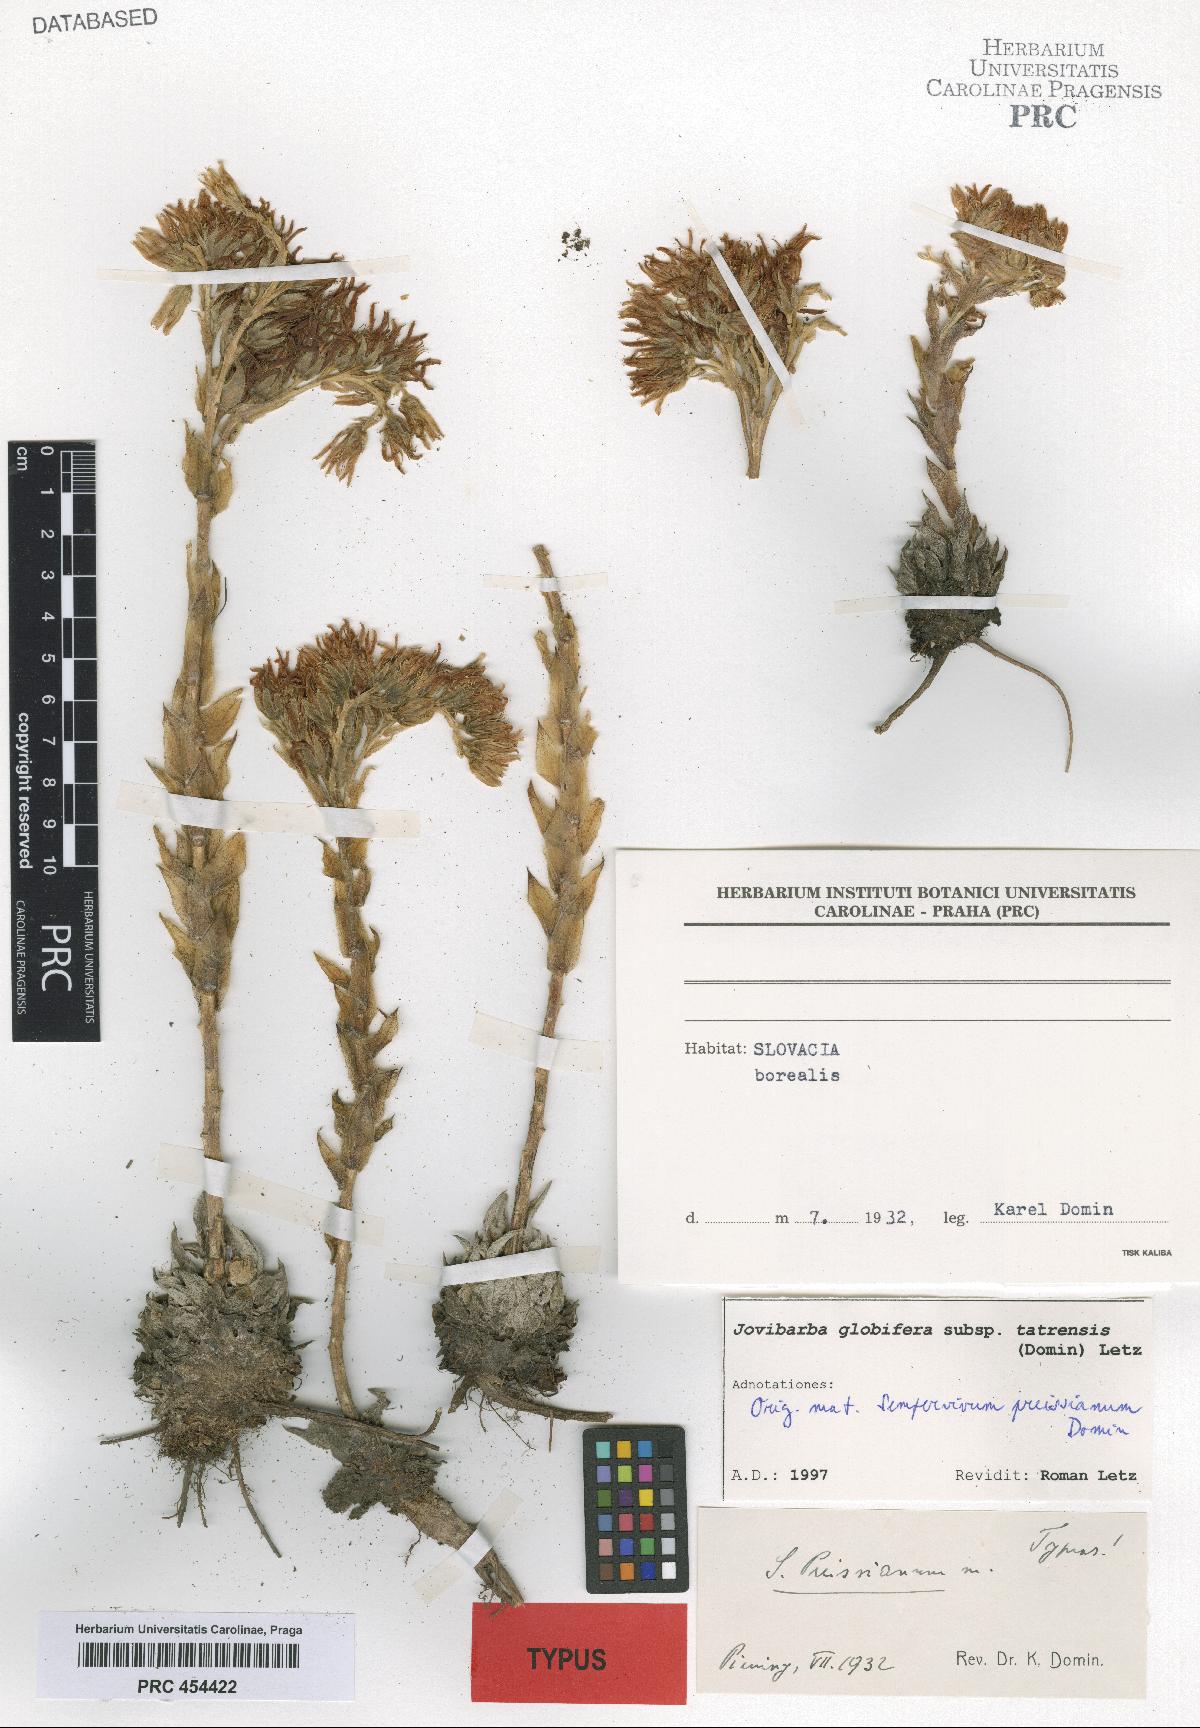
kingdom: Plantae
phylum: Tracheophyta
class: Magnoliopsida
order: Saxifragales
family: Crassulaceae
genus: Sempervivum
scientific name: Sempervivum globiferum
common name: Rolling hen-and-chicks
